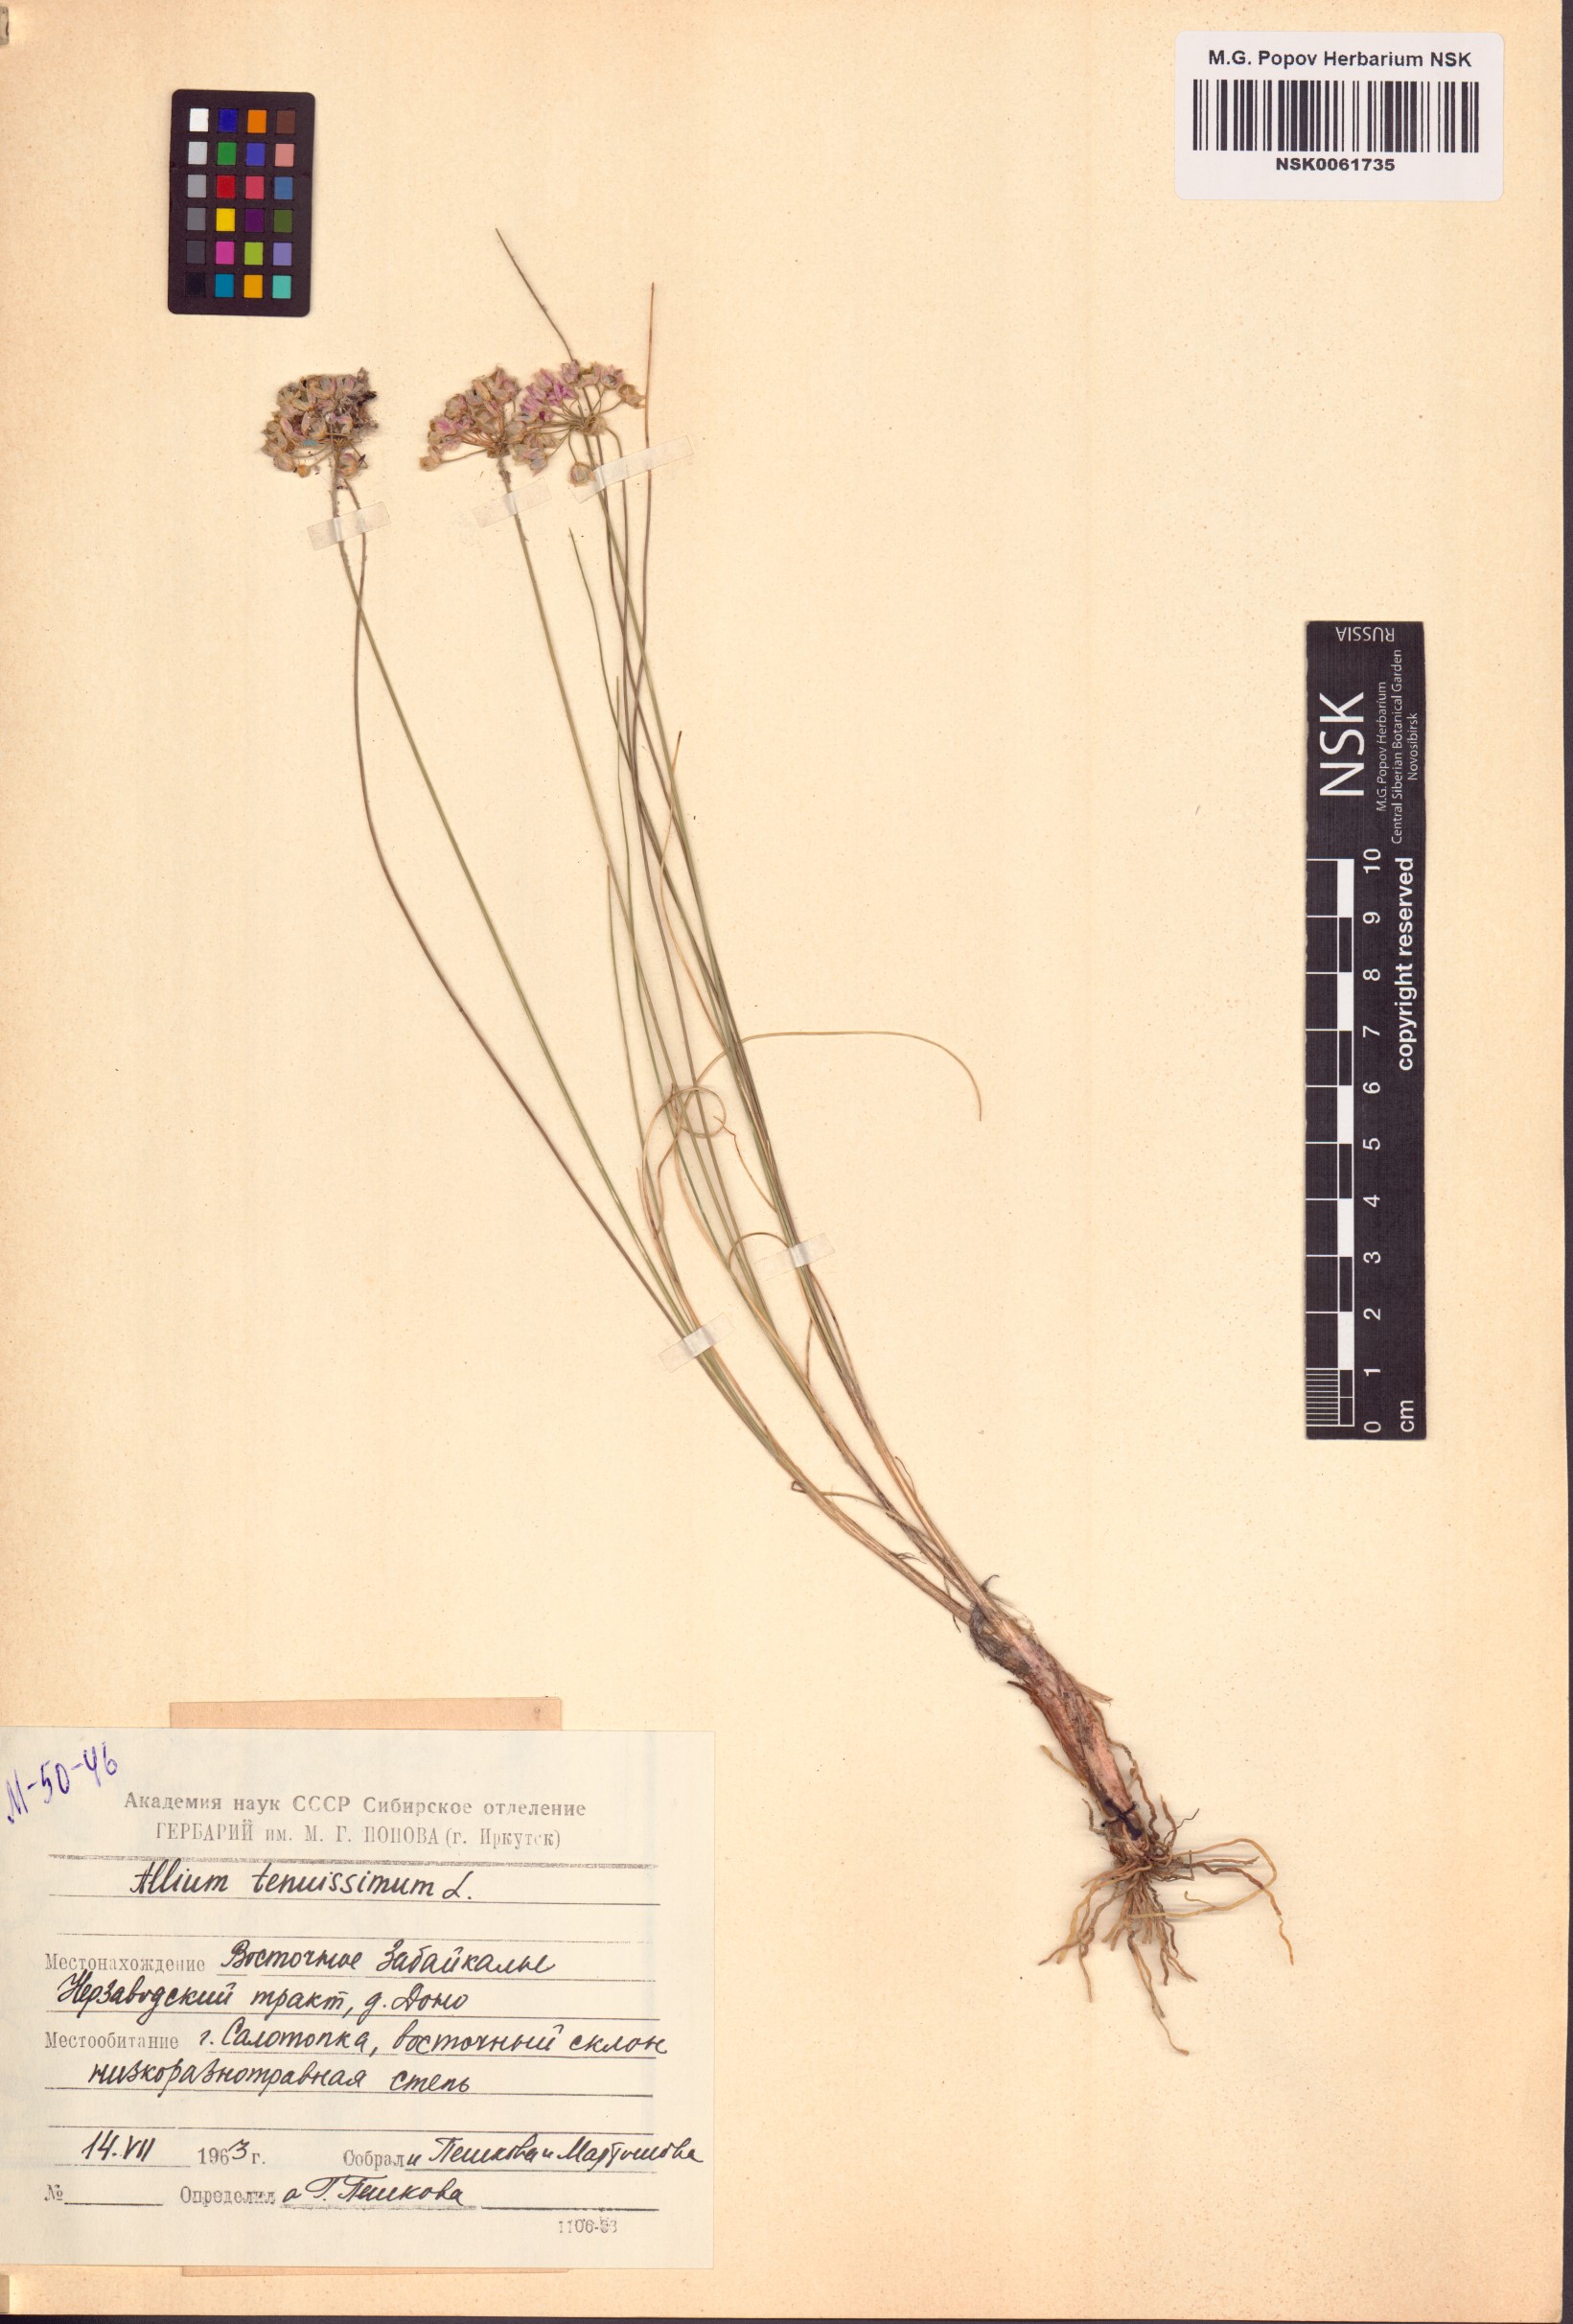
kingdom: Plantae
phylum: Tracheophyta
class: Liliopsida
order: Asparagales
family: Amaryllidaceae
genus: Allium
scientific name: Allium tenuissimum
